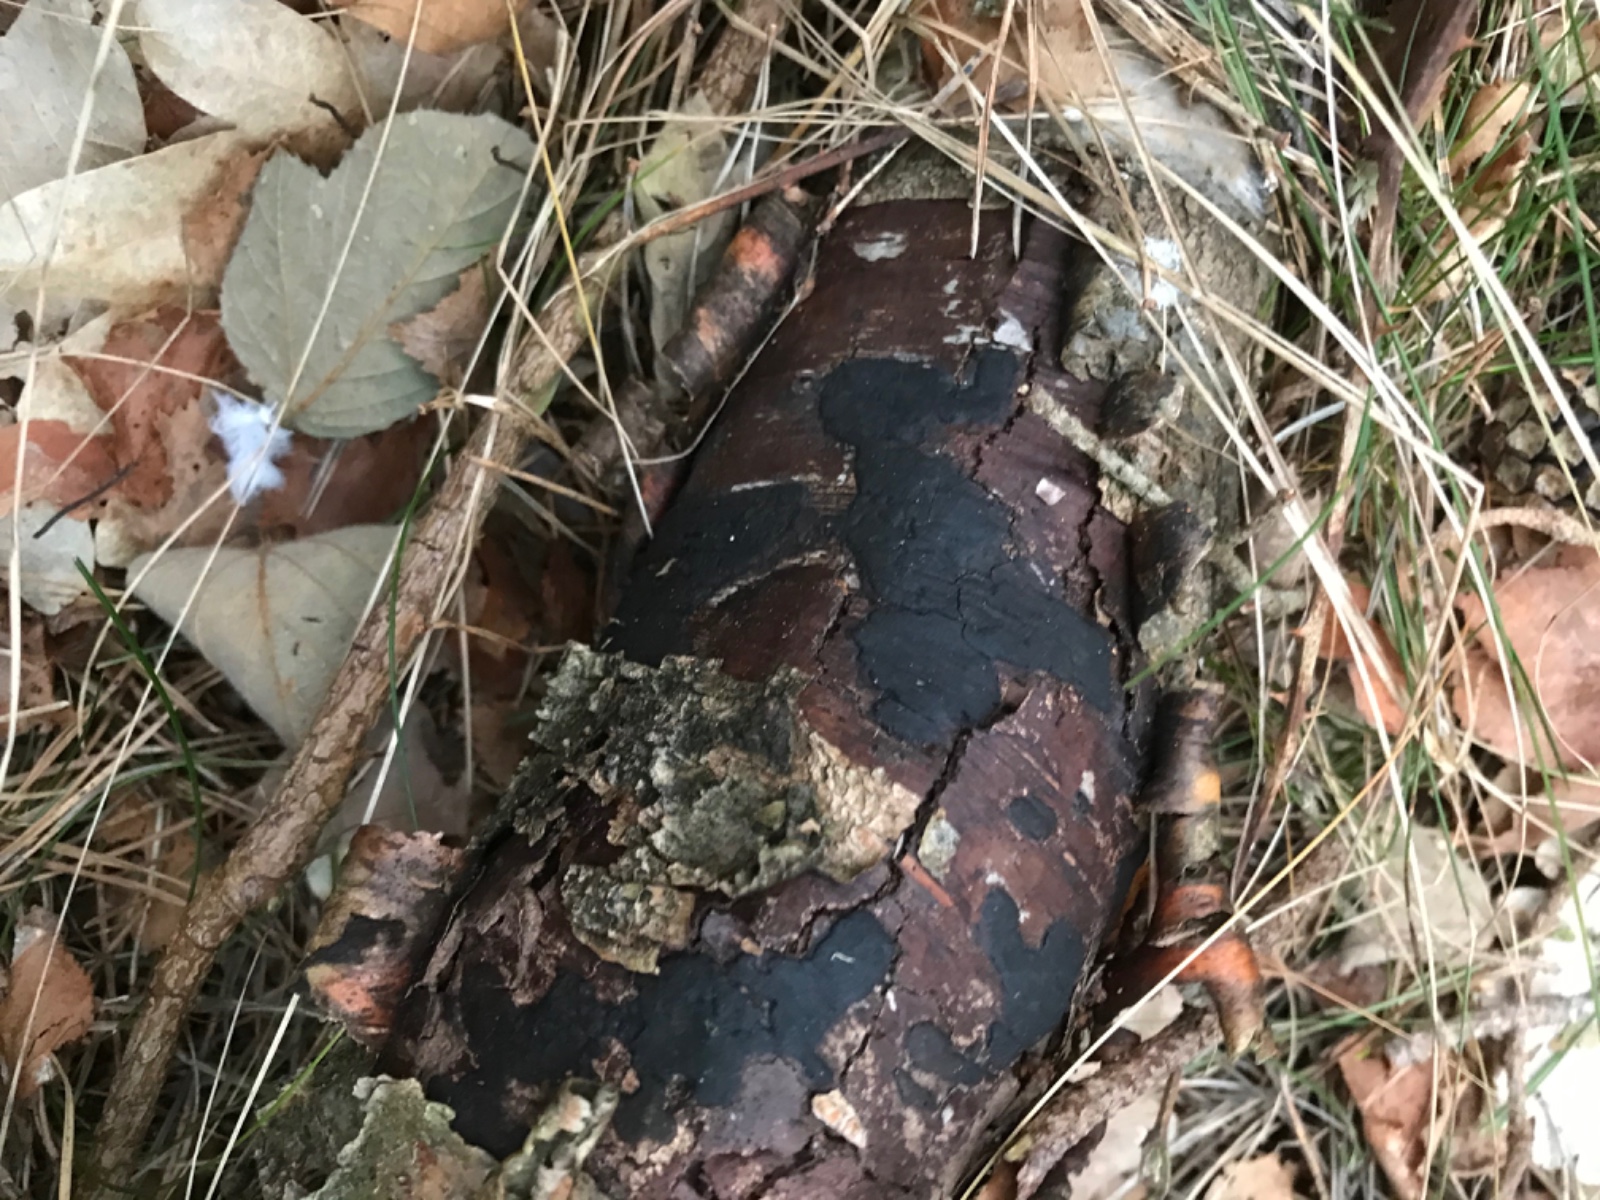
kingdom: Fungi
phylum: Ascomycota
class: Sordariomycetes
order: Xylariales
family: Diatrypaceae
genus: Diatrype
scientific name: Diatrype
